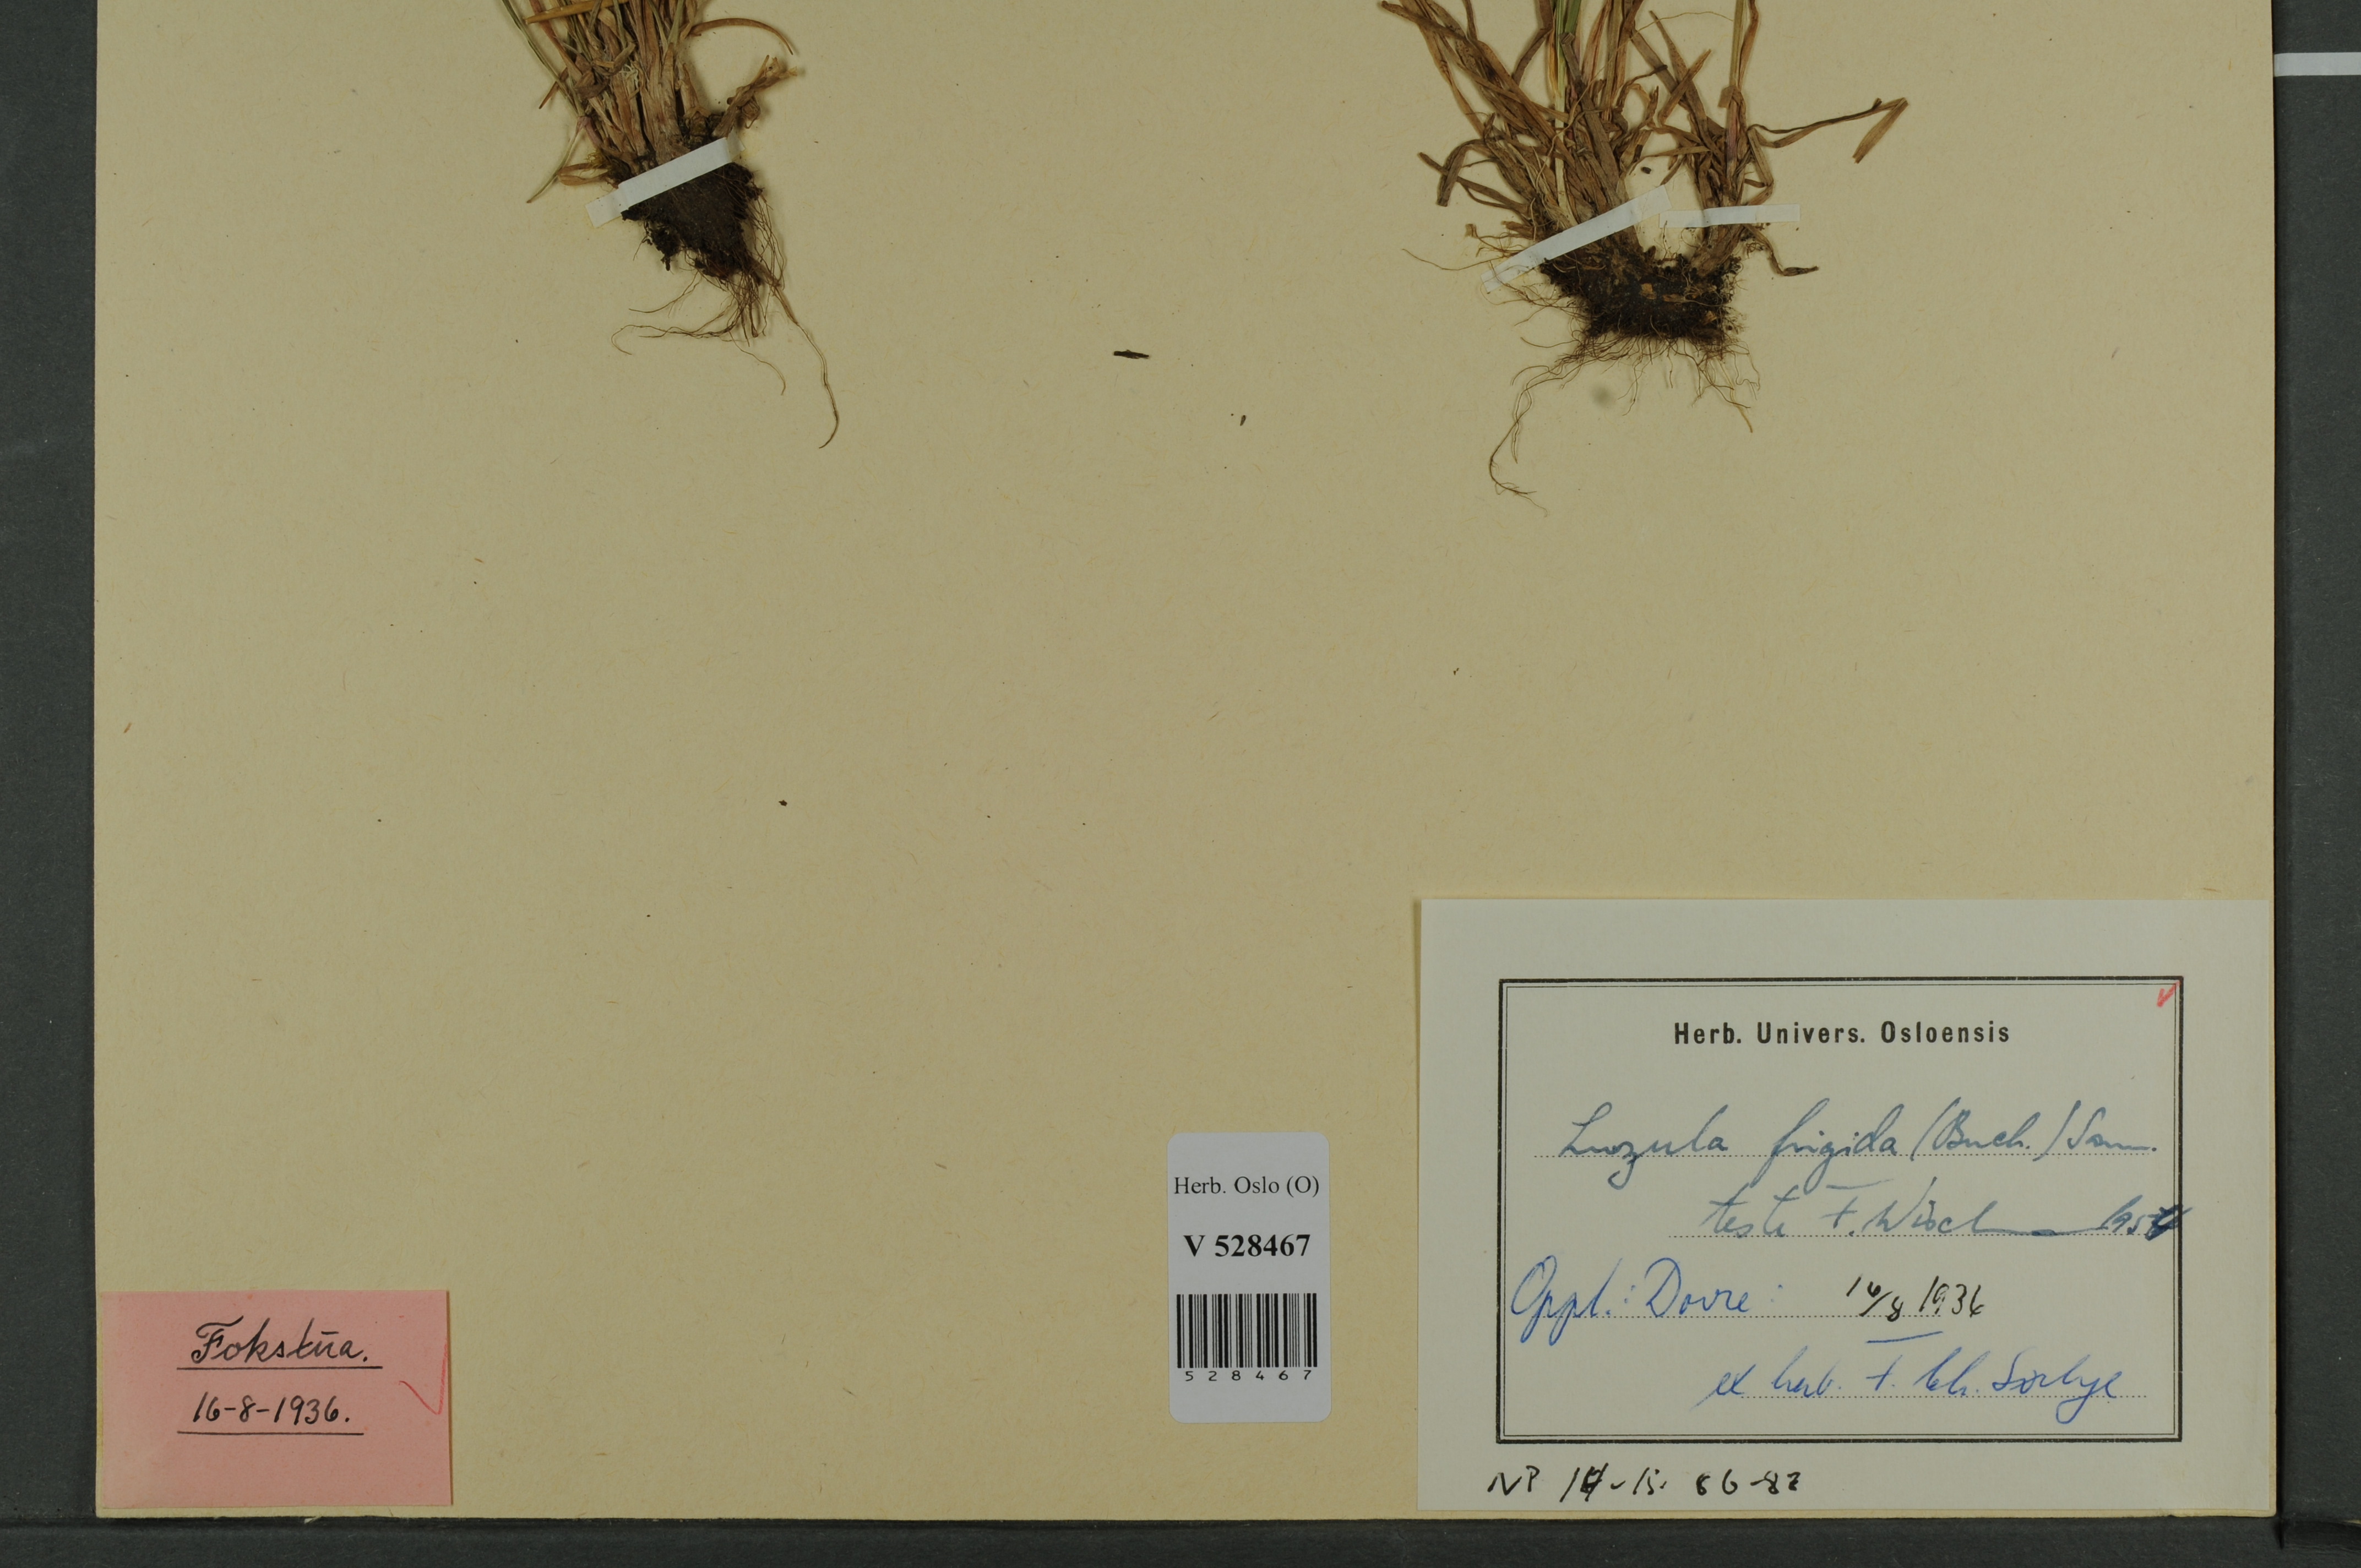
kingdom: Plantae
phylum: Tracheophyta
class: Liliopsida
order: Poales
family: Juncaceae
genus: Luzula
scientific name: Luzula multiflora
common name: Heath wood-rush
